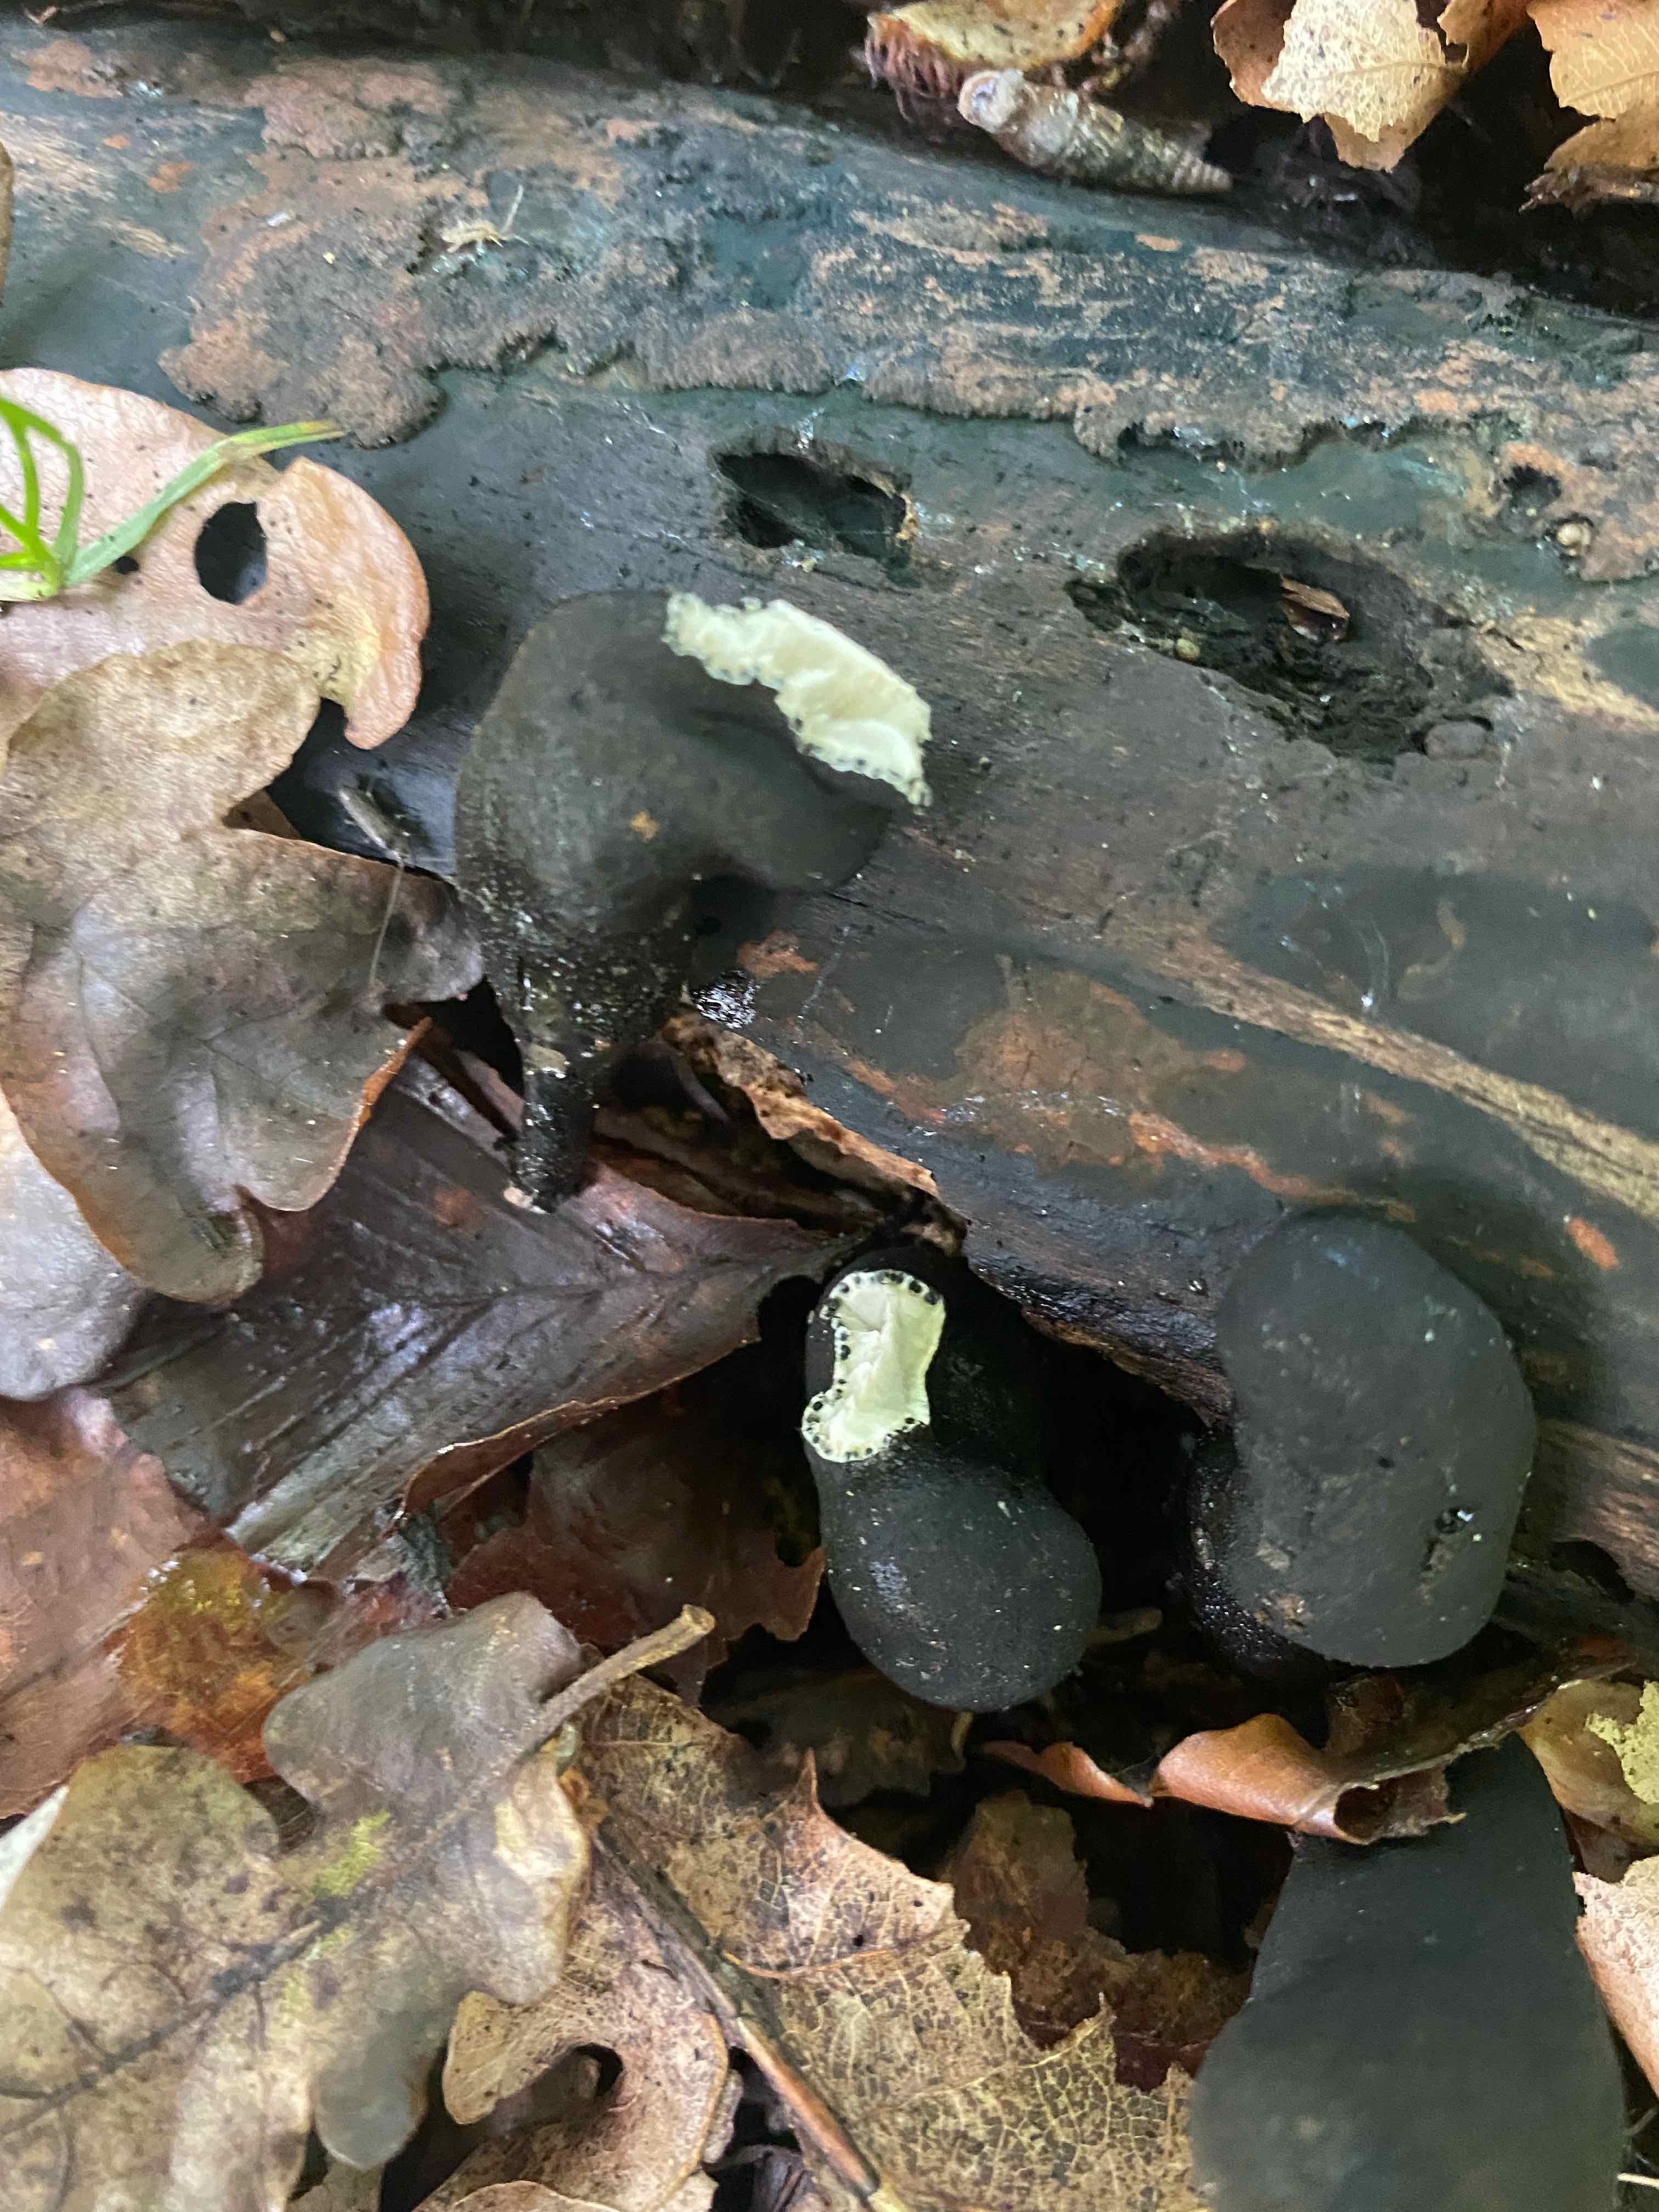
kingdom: Fungi
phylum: Ascomycota
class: Sordariomycetes
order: Xylariales
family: Xylariaceae
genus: Xylaria
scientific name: Xylaria polymorpha
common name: kølle-stødsvamp
